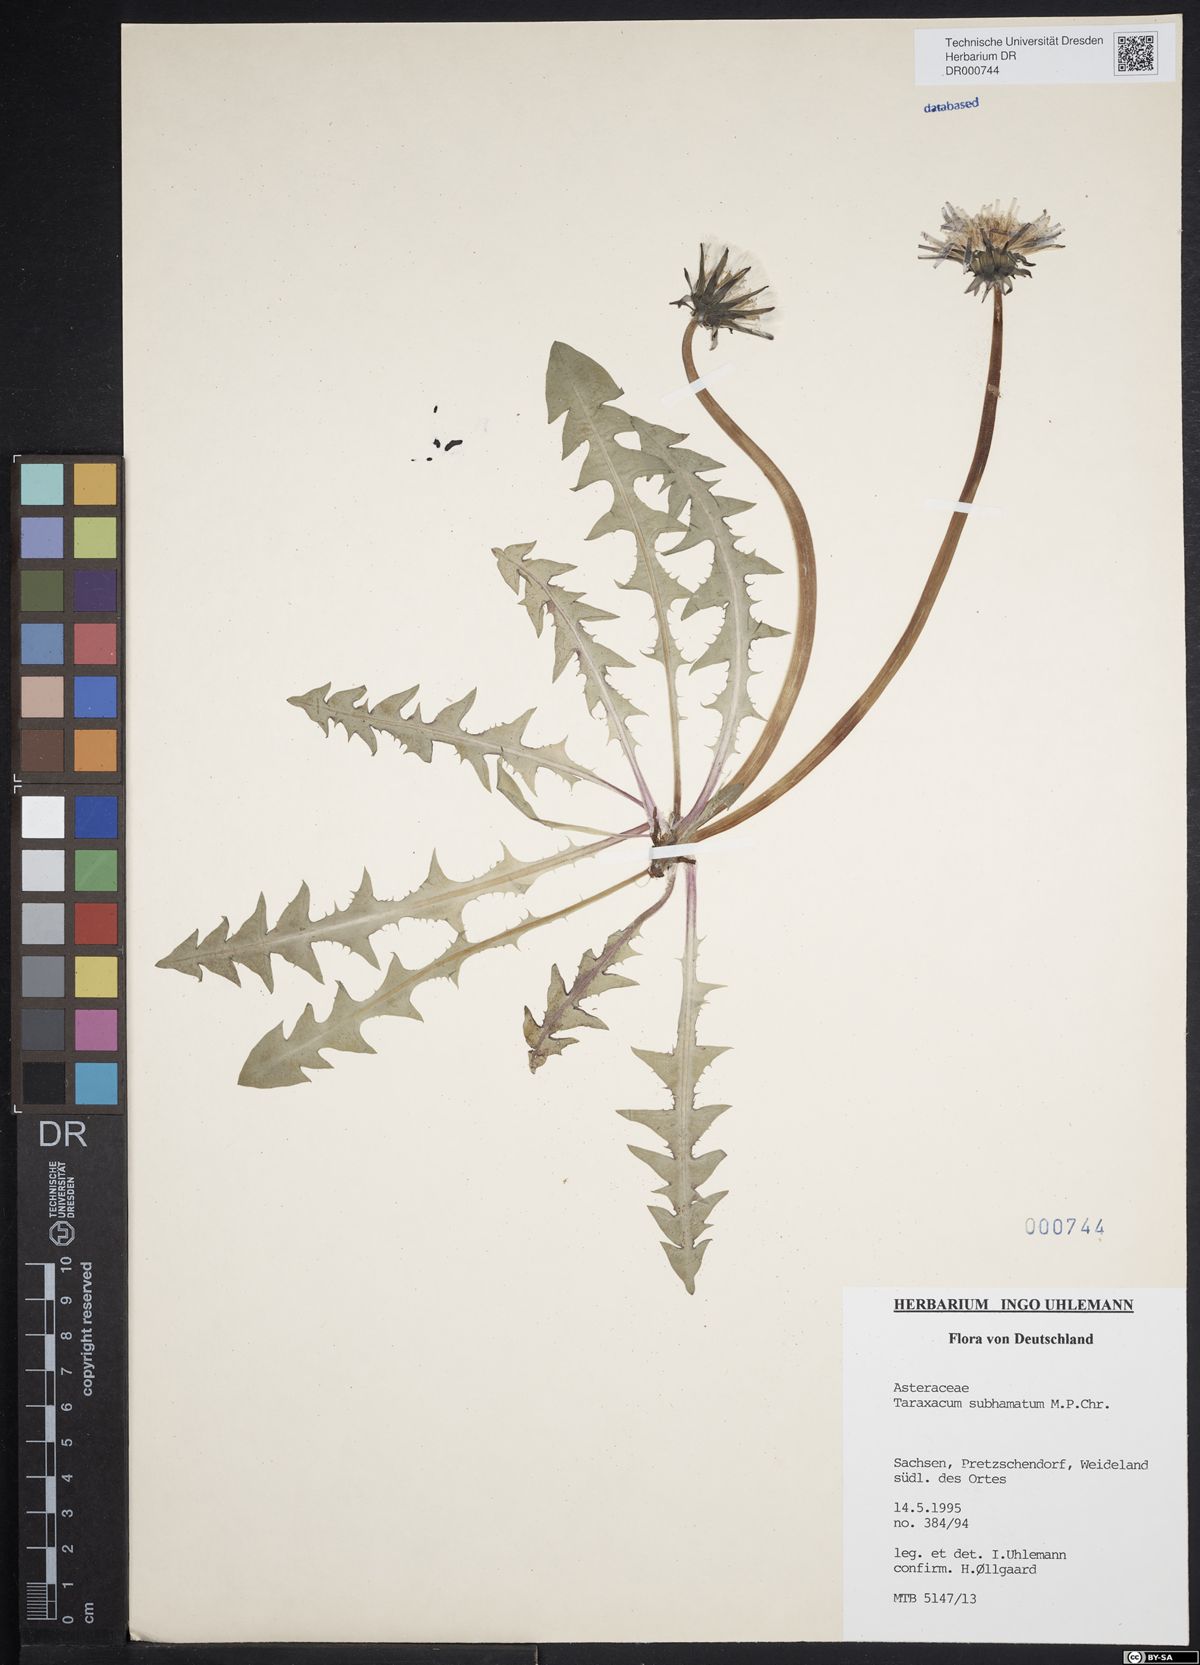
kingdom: Plantae
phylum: Tracheophyta
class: Magnoliopsida
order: Asterales
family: Asteraceae
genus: Taraxacum
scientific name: Taraxacum subhamatum
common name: Large hook-lobed dandelion
